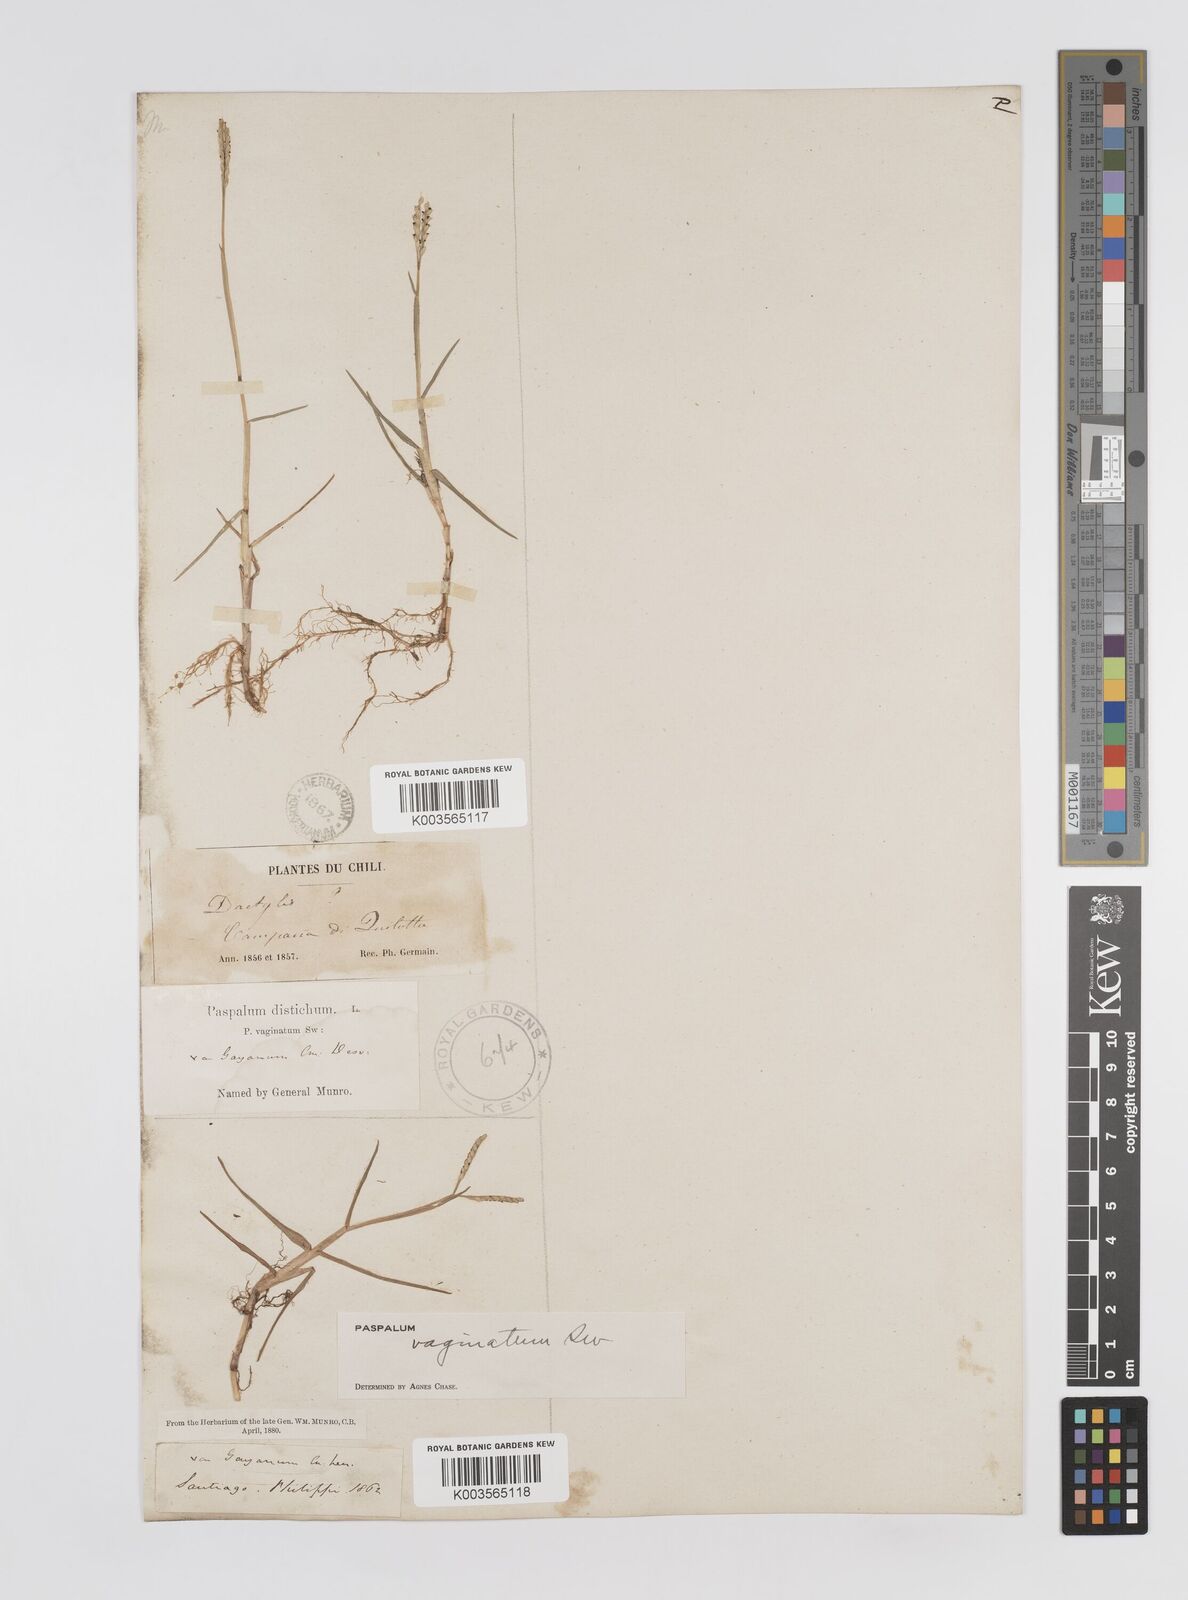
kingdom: Plantae
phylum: Tracheophyta
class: Liliopsida
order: Poales
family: Poaceae
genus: Paspalum
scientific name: Paspalum vaginatum
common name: Seashore paspalum
